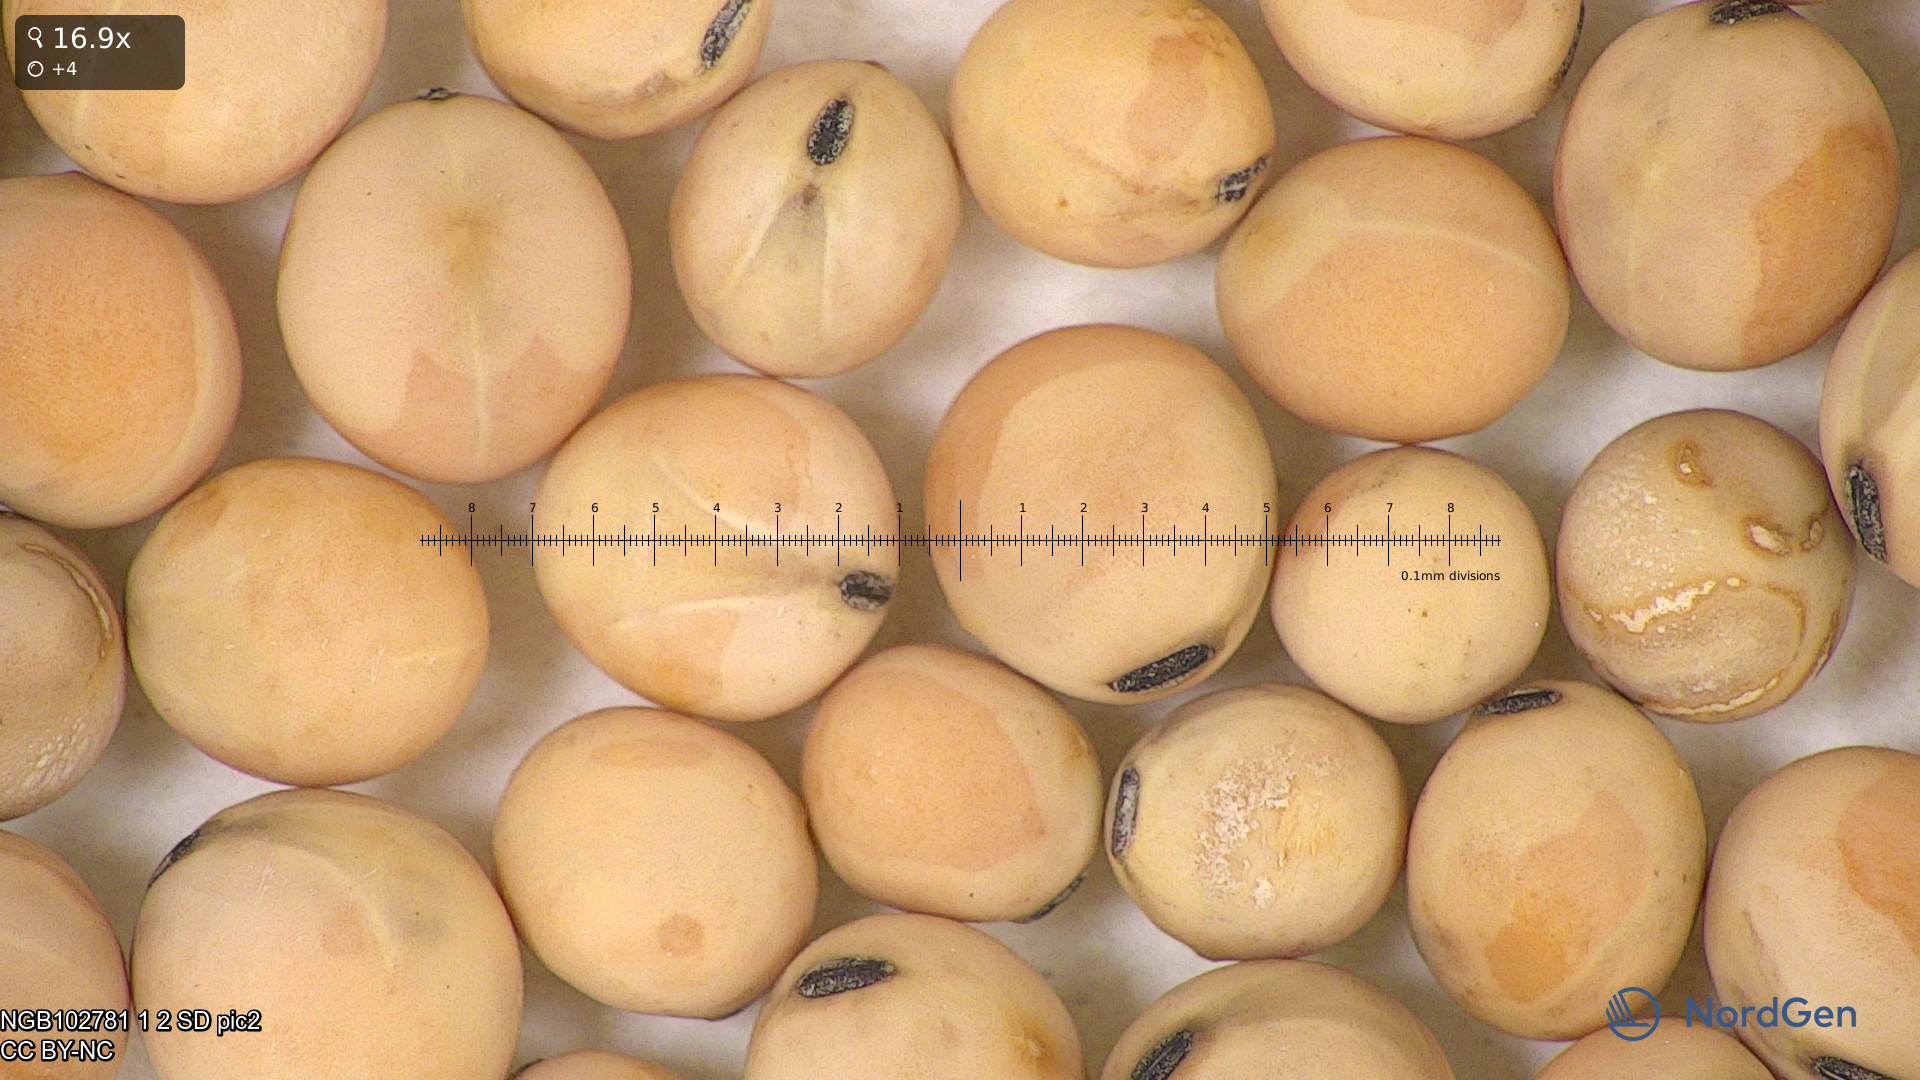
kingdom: Plantae
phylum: Tracheophyta
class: Magnoliopsida
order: Fabales
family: Fabaceae
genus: Lathyrus
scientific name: Lathyrus oleraceus
